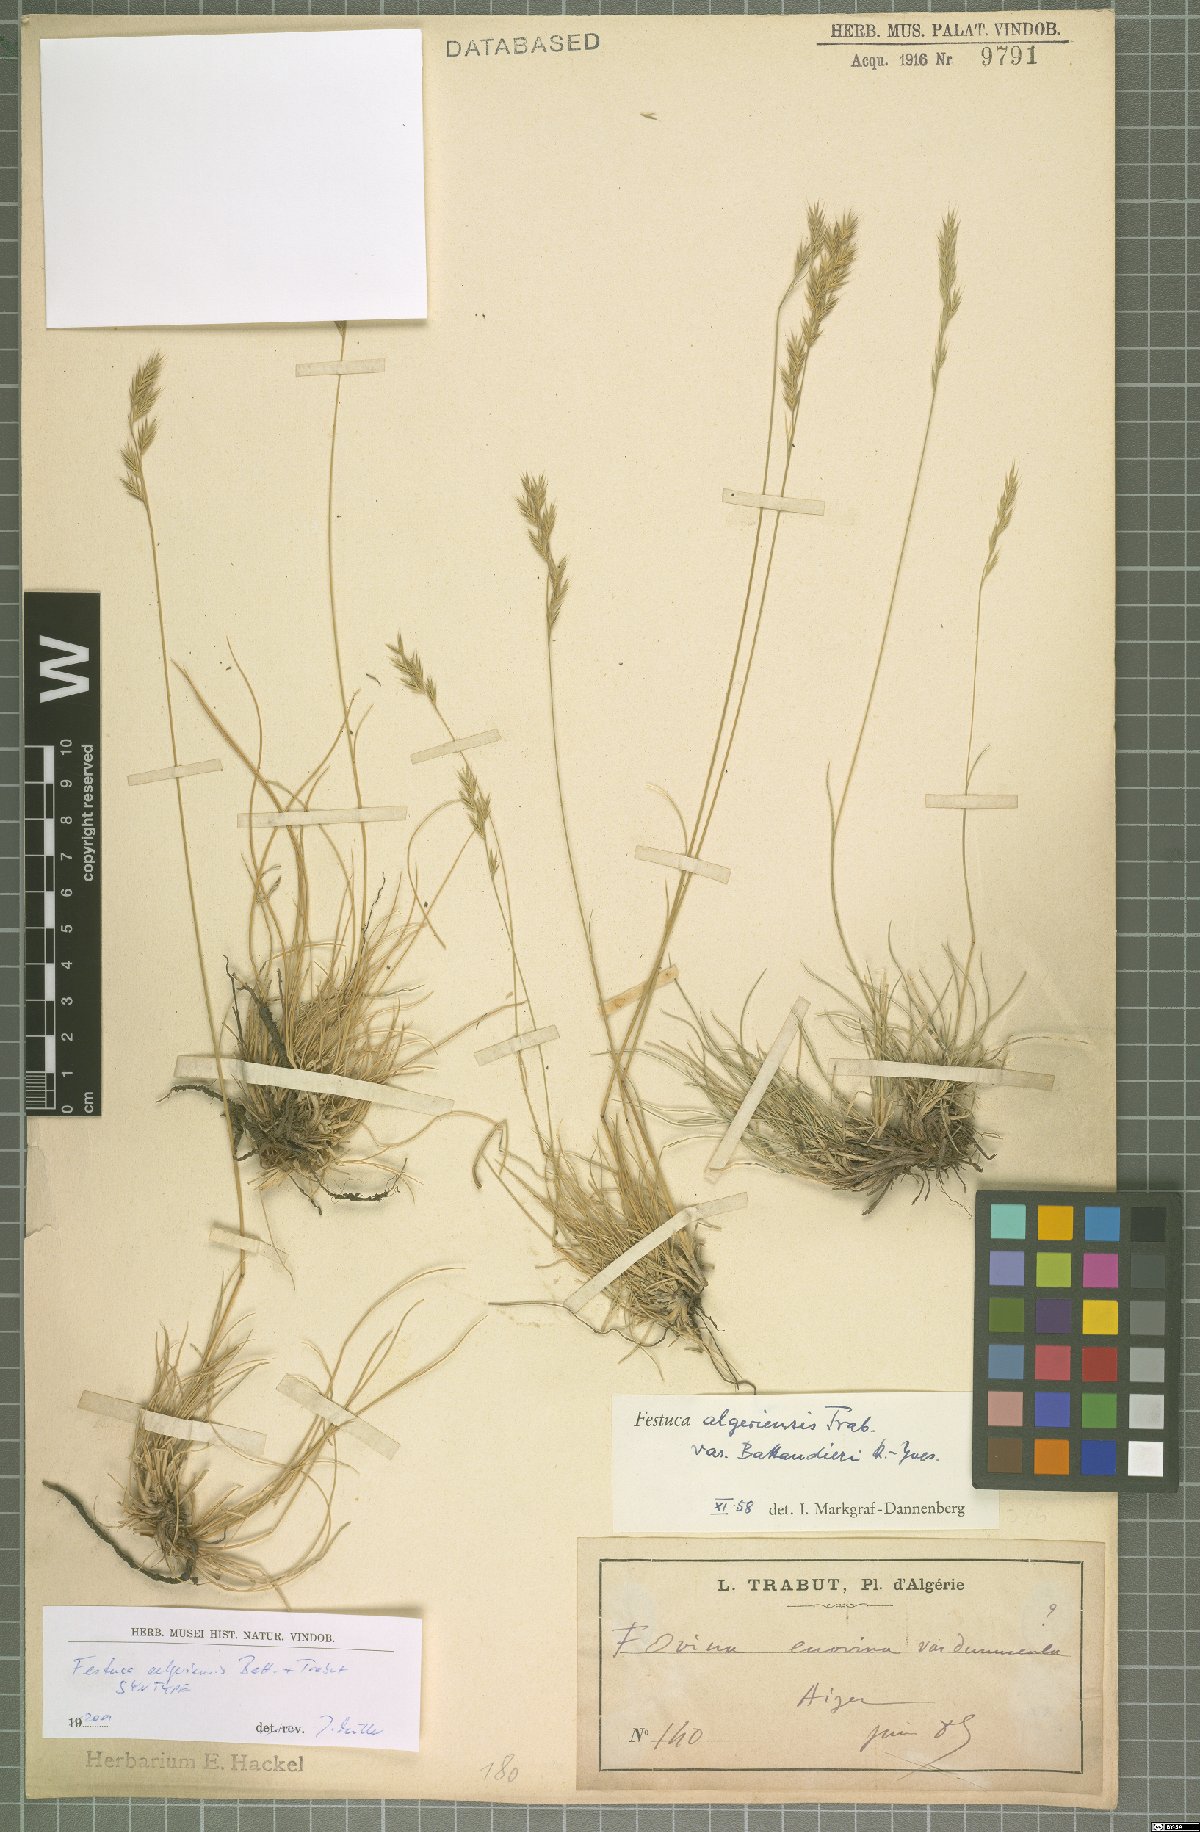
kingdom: Plantae
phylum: Tracheophyta
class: Liliopsida
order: Poales
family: Poaceae
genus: Festuca
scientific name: Festuca algeriensis
